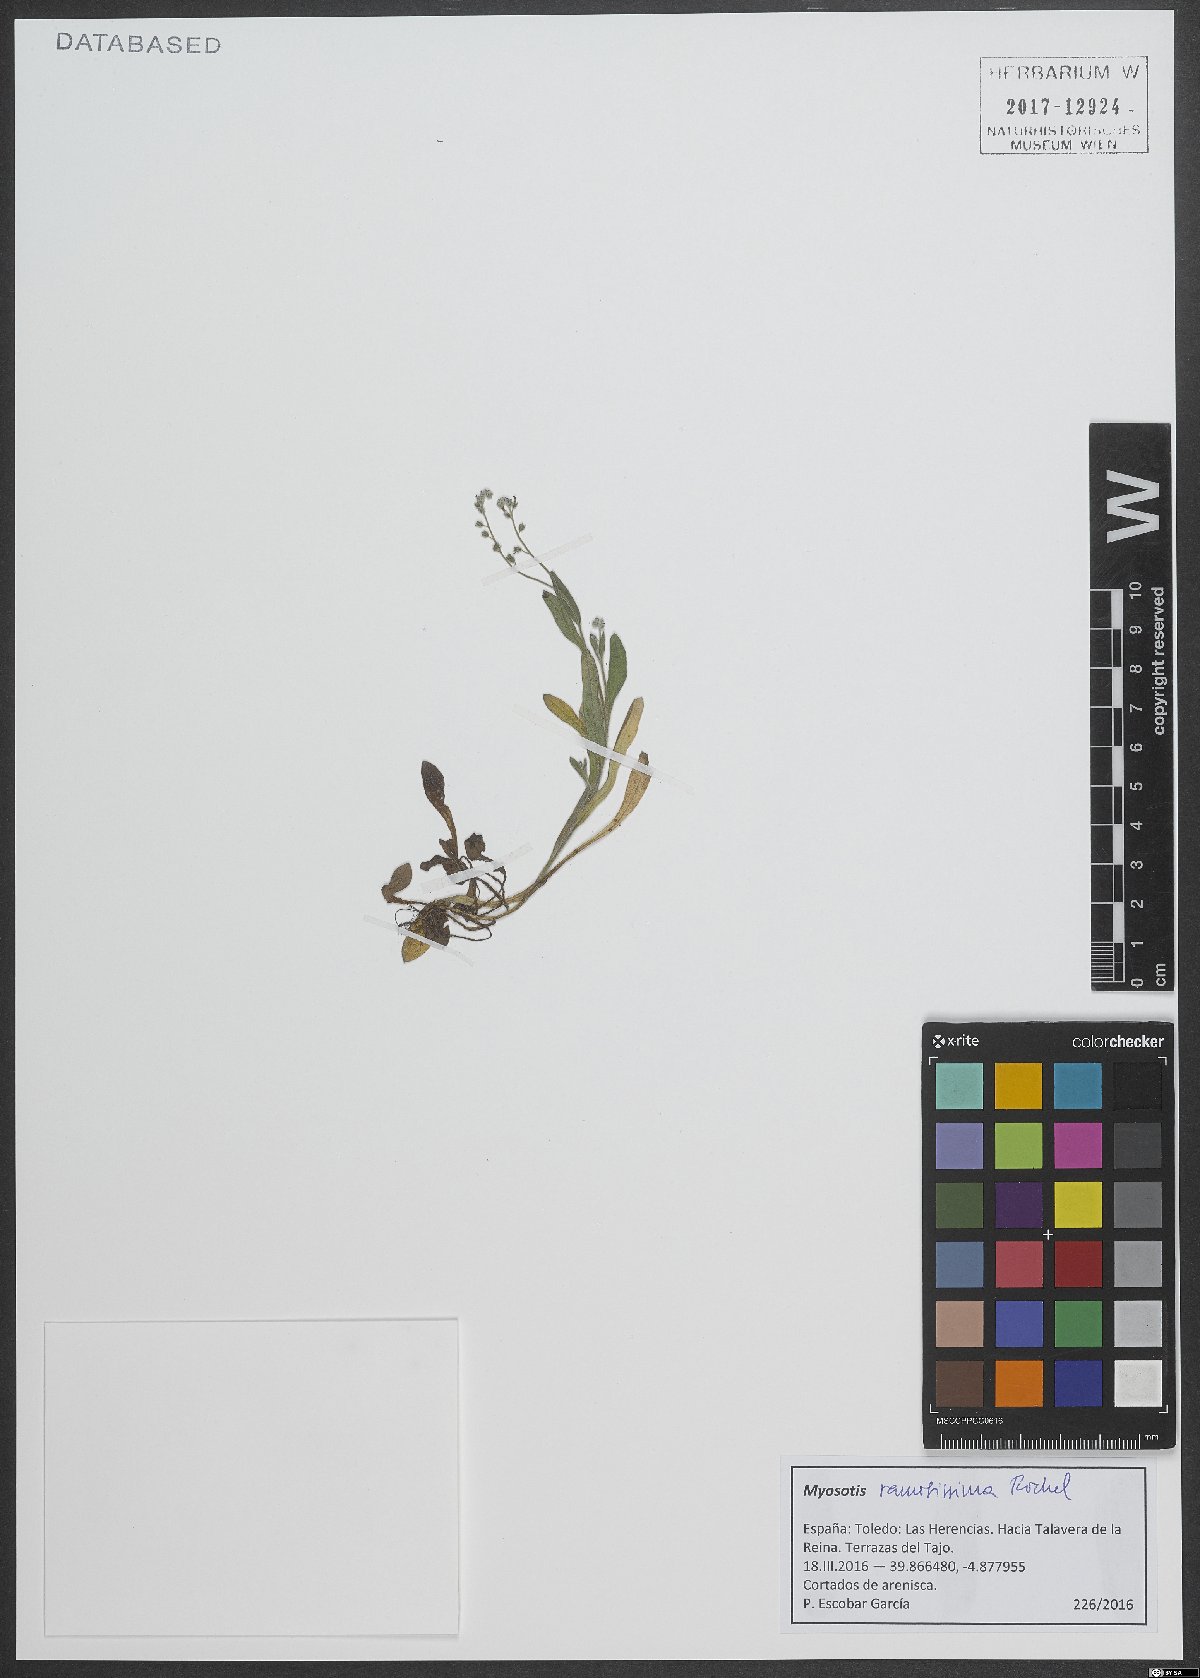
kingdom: Plantae
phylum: Tracheophyta
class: Magnoliopsida
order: Boraginales
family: Boraginaceae
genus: Myosotis
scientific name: Myosotis ramosissima
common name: Early forget-me-not
